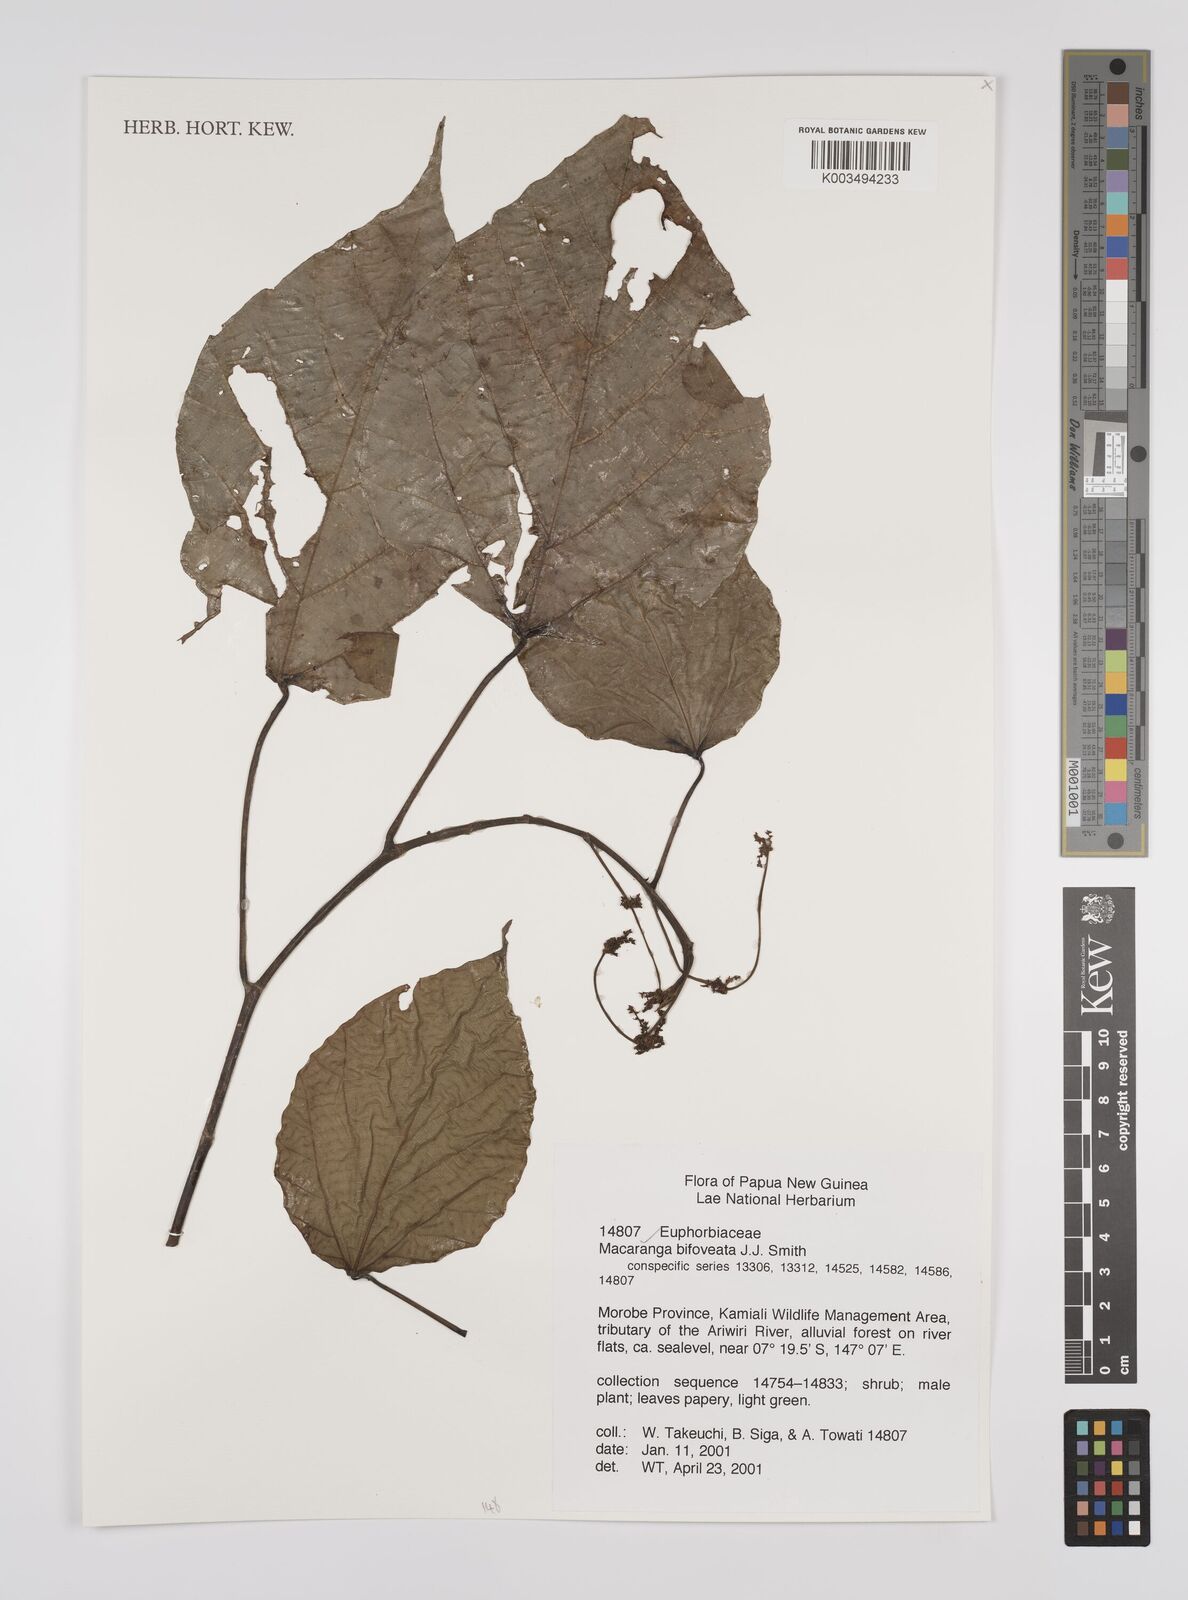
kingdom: Plantae
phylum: Tracheophyta
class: Magnoliopsida
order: Malpighiales
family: Euphorbiaceae
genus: Macaranga
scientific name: Macaranga bifoveata
